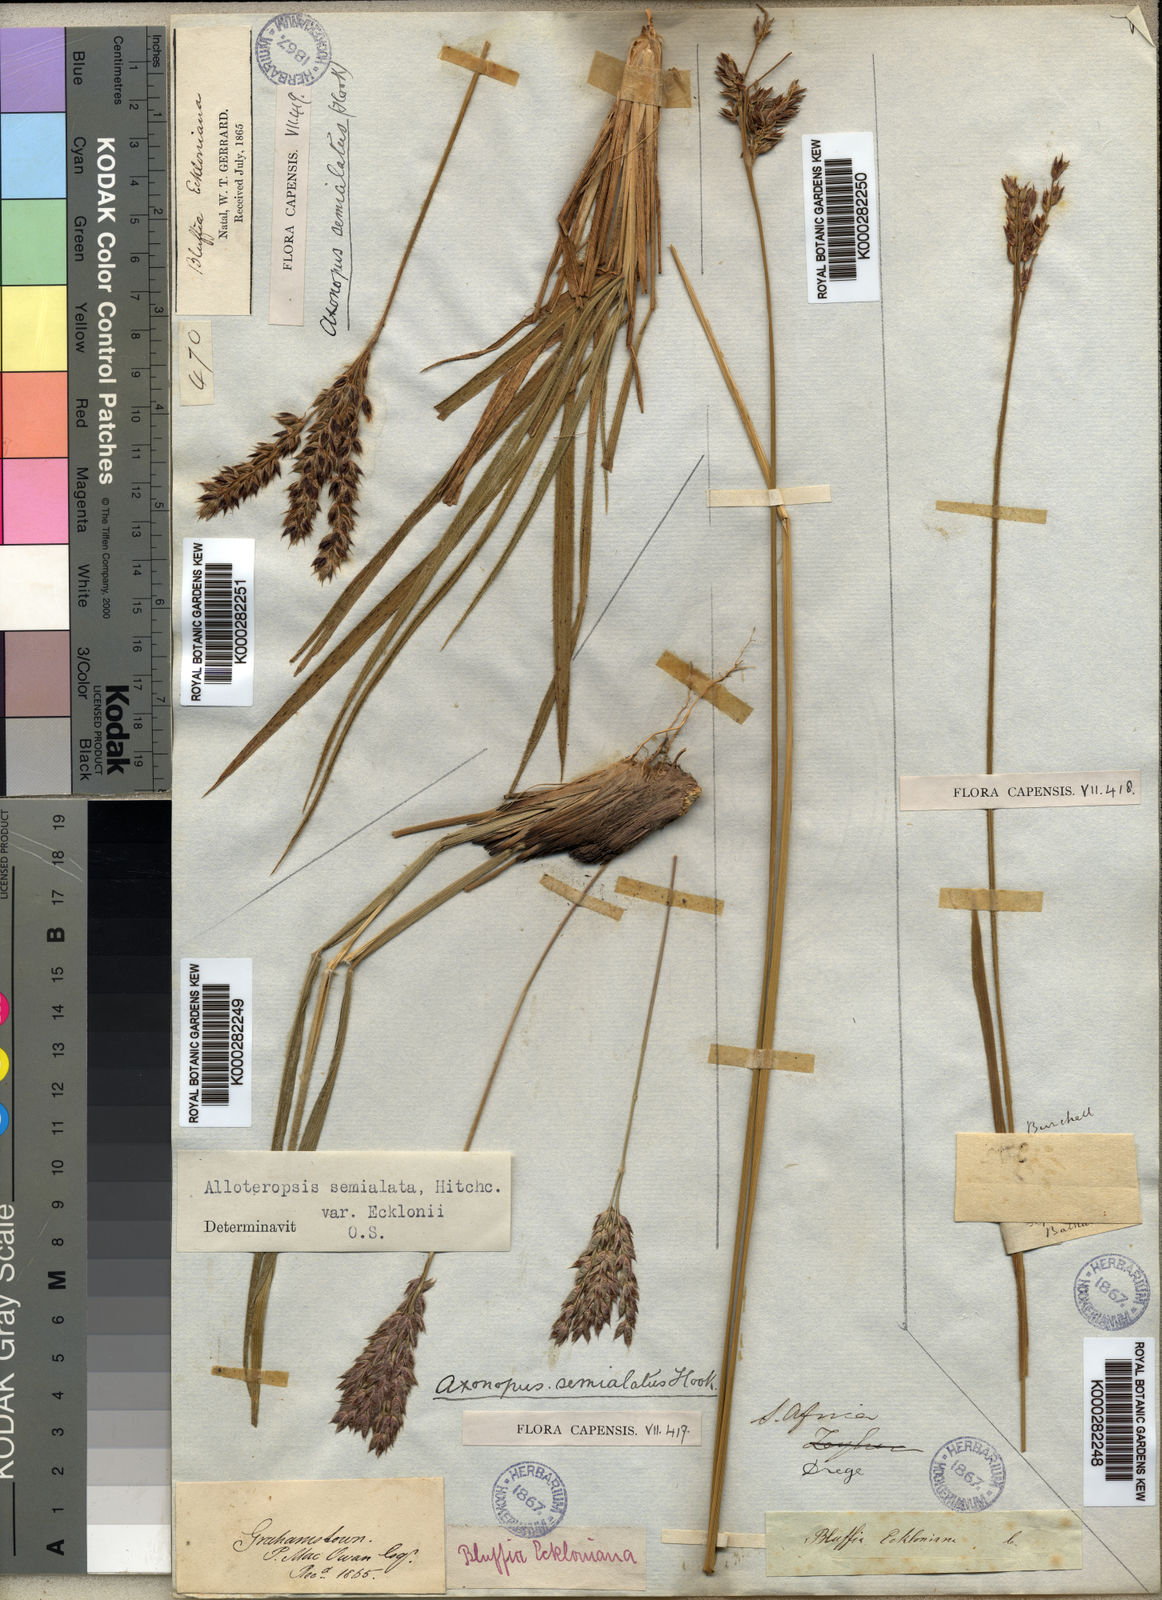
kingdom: Plantae
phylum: Tracheophyta
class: Liliopsida
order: Poales
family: Poaceae
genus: Alloteropsis
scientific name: Alloteropsis semialata
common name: Cockatoo grass
